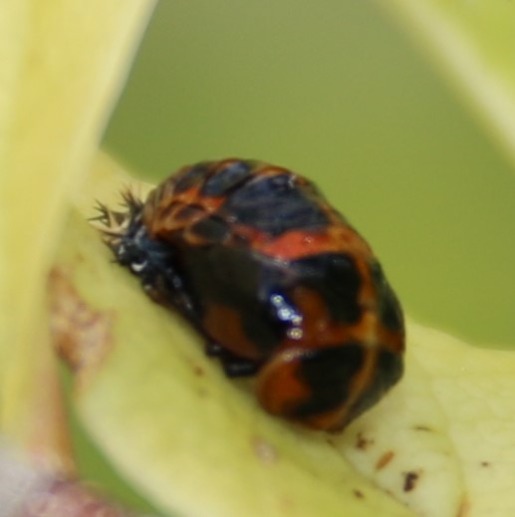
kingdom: Animalia
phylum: Arthropoda
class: Insecta
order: Coleoptera
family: Coccinellidae
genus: Harmonia
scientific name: Harmonia axyridis
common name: Harlekinmariehøne
